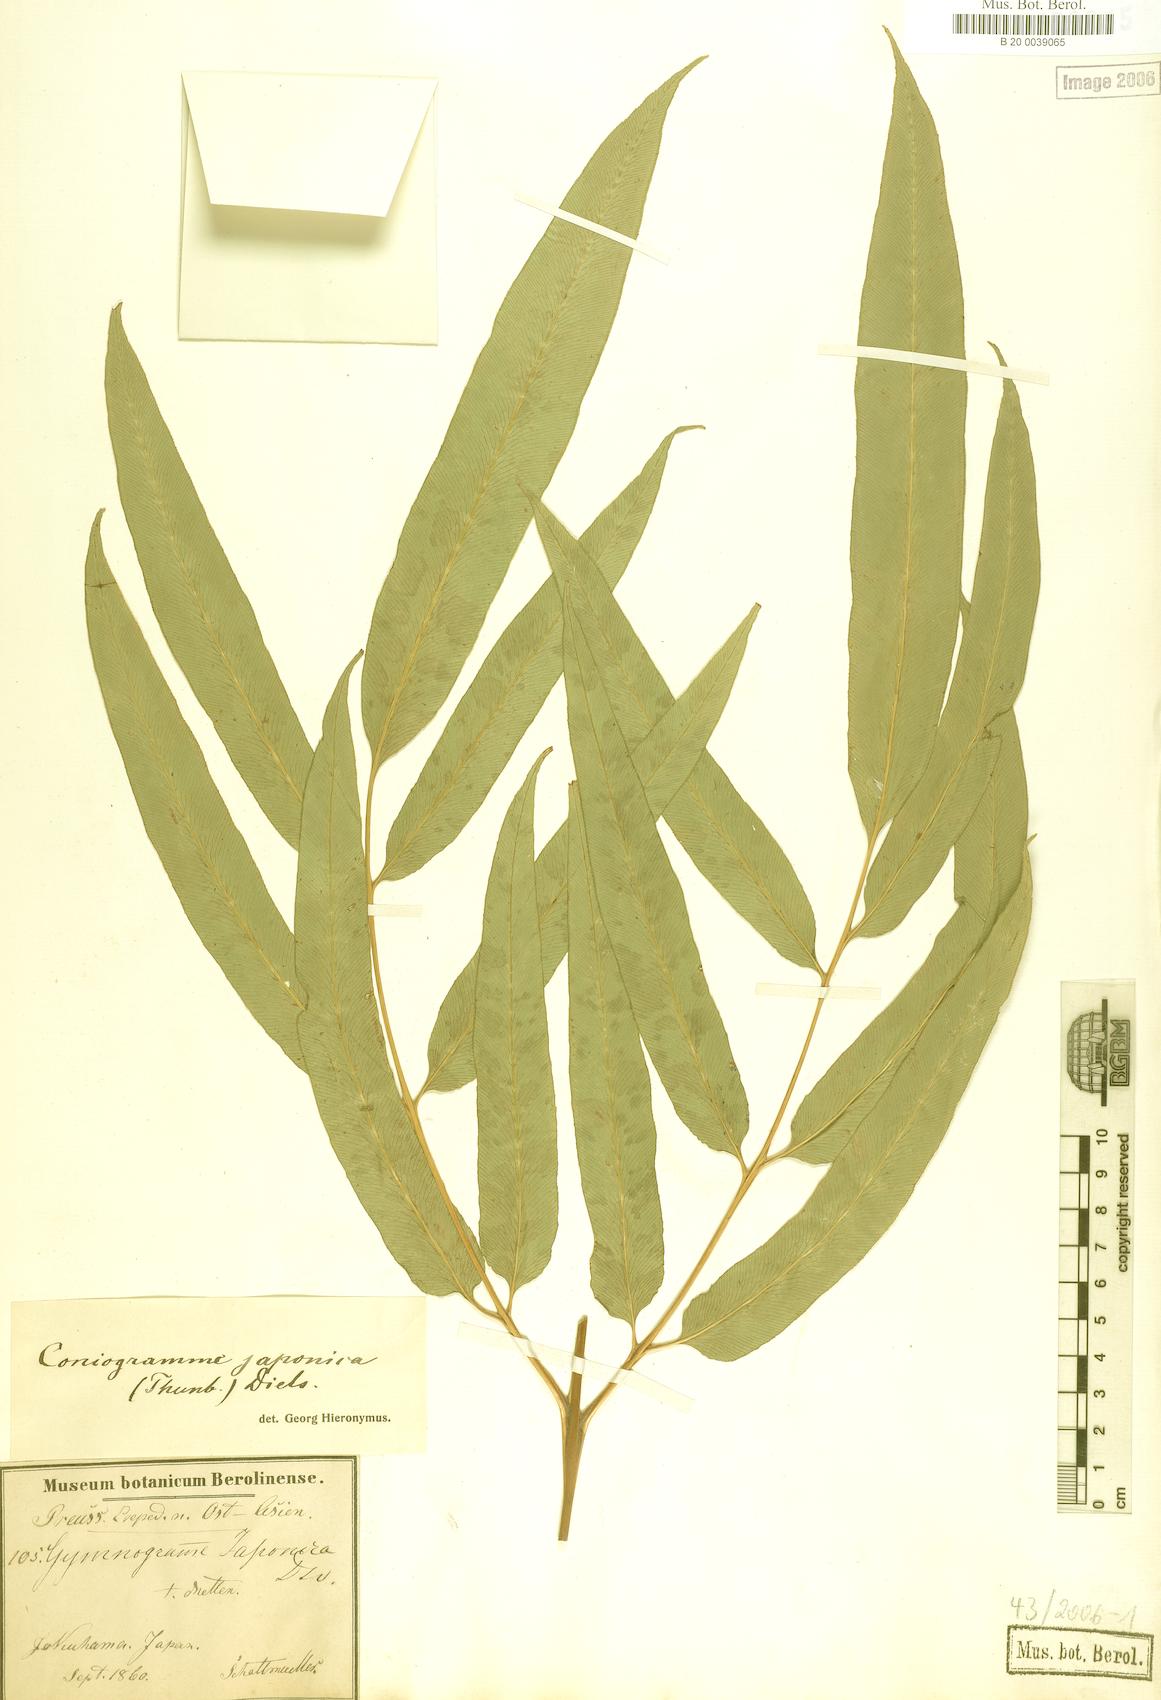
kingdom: Plantae
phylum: Tracheophyta
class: Polypodiopsida
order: Polypodiales
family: Pteridaceae
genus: Coniogramme
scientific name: Coniogramme japonica
